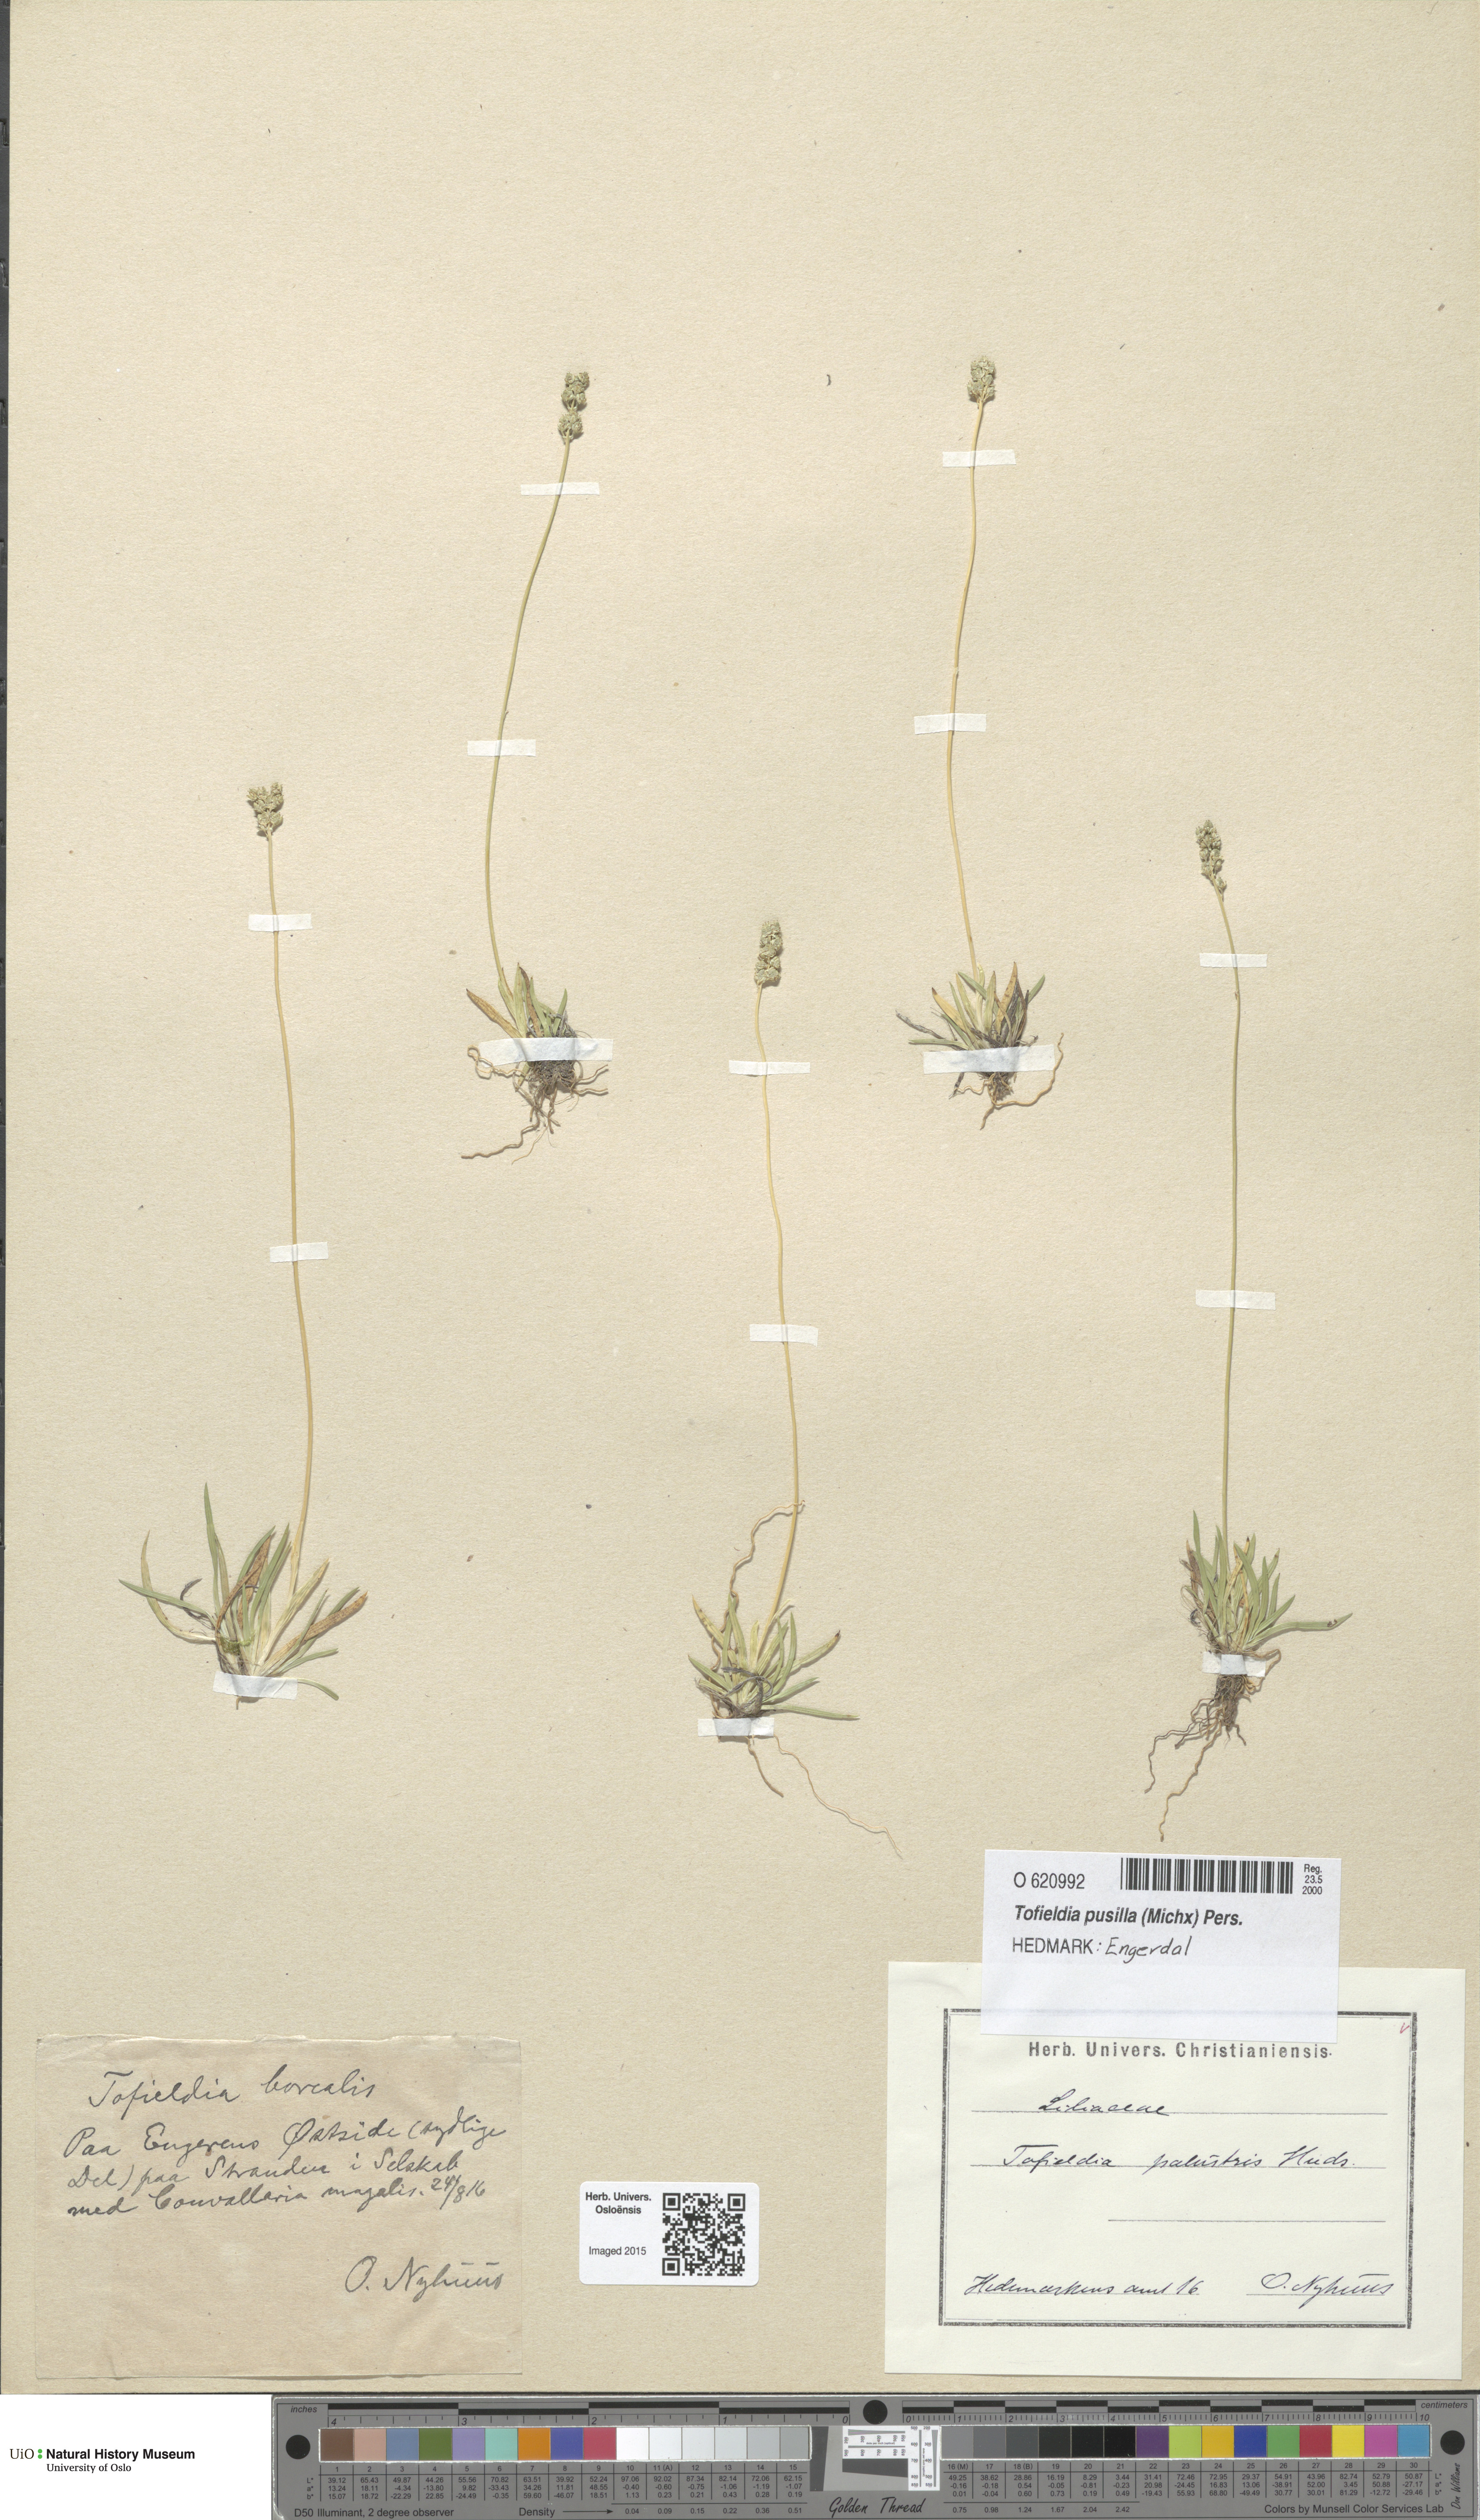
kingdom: Plantae
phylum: Tracheophyta
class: Liliopsida
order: Alismatales
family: Tofieldiaceae
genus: Tofieldia
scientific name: Tofieldia pusilla
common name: Scottish false asphodel
